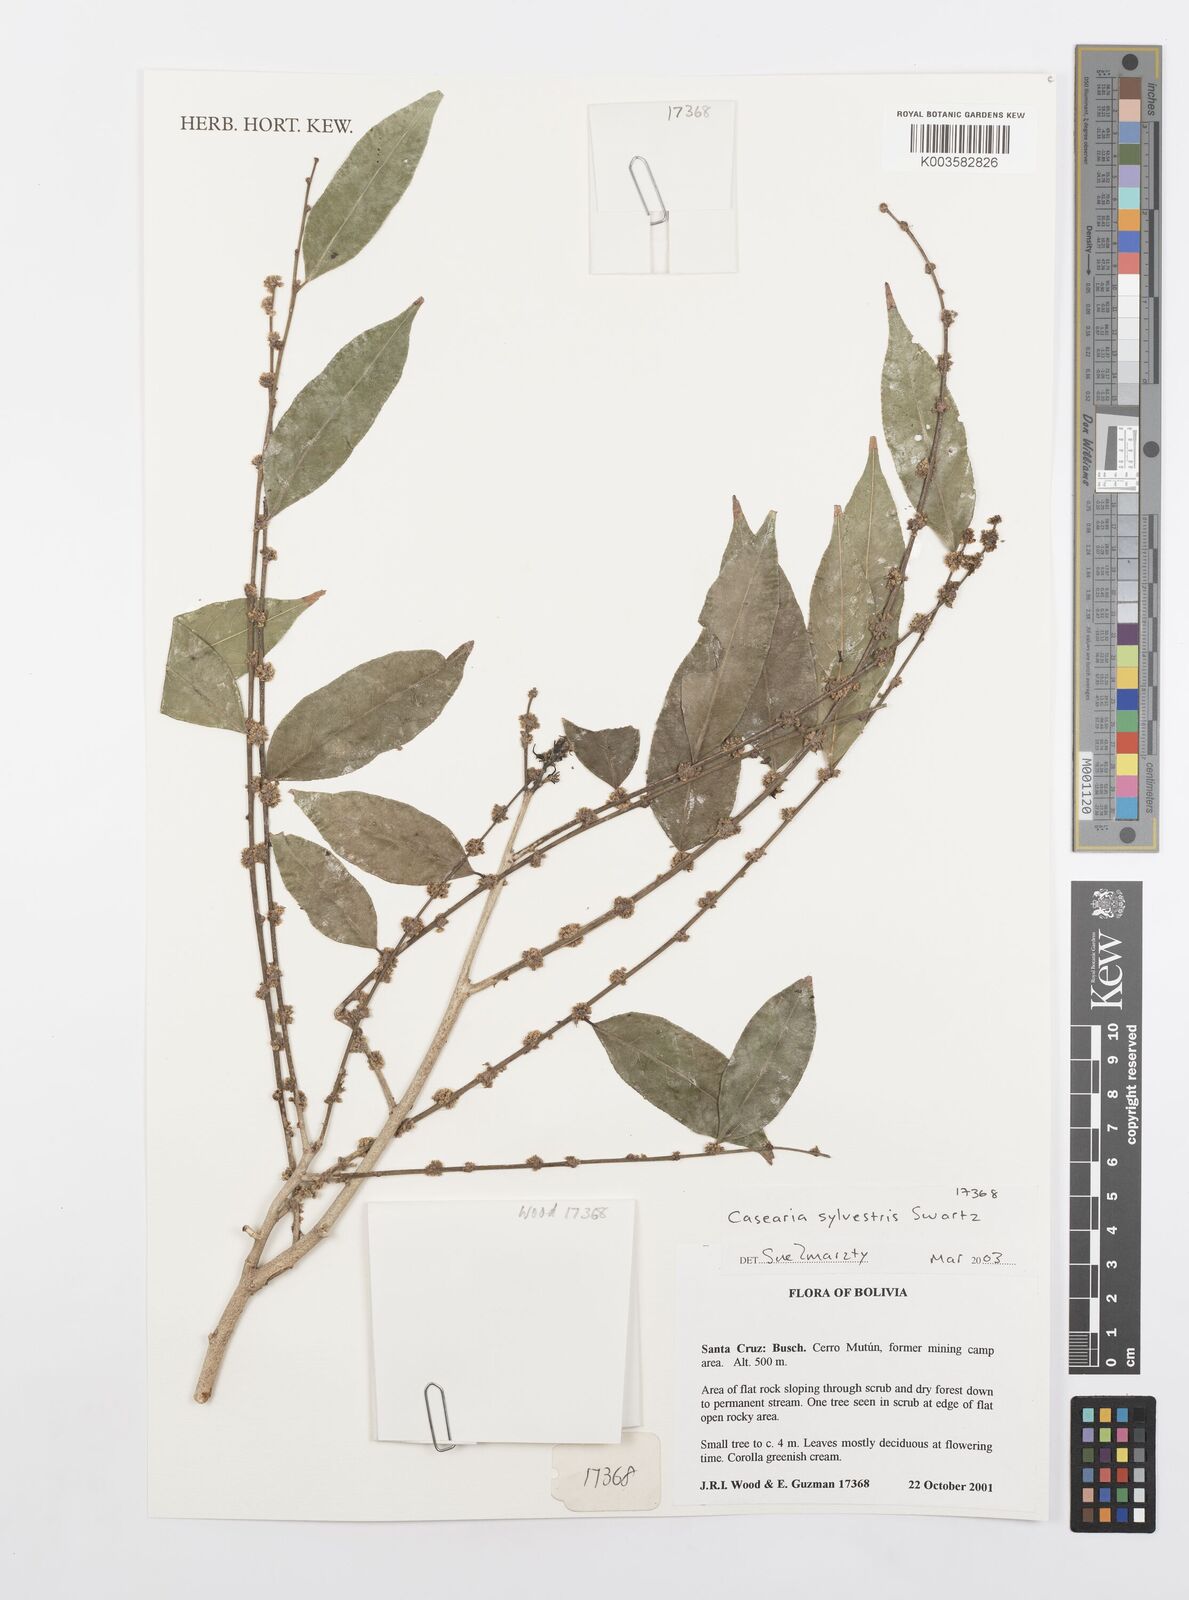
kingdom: Plantae
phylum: Tracheophyta
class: Magnoliopsida
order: Malpighiales
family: Salicaceae
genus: Casearia
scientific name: Casearia sylvestris
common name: Wild sage
